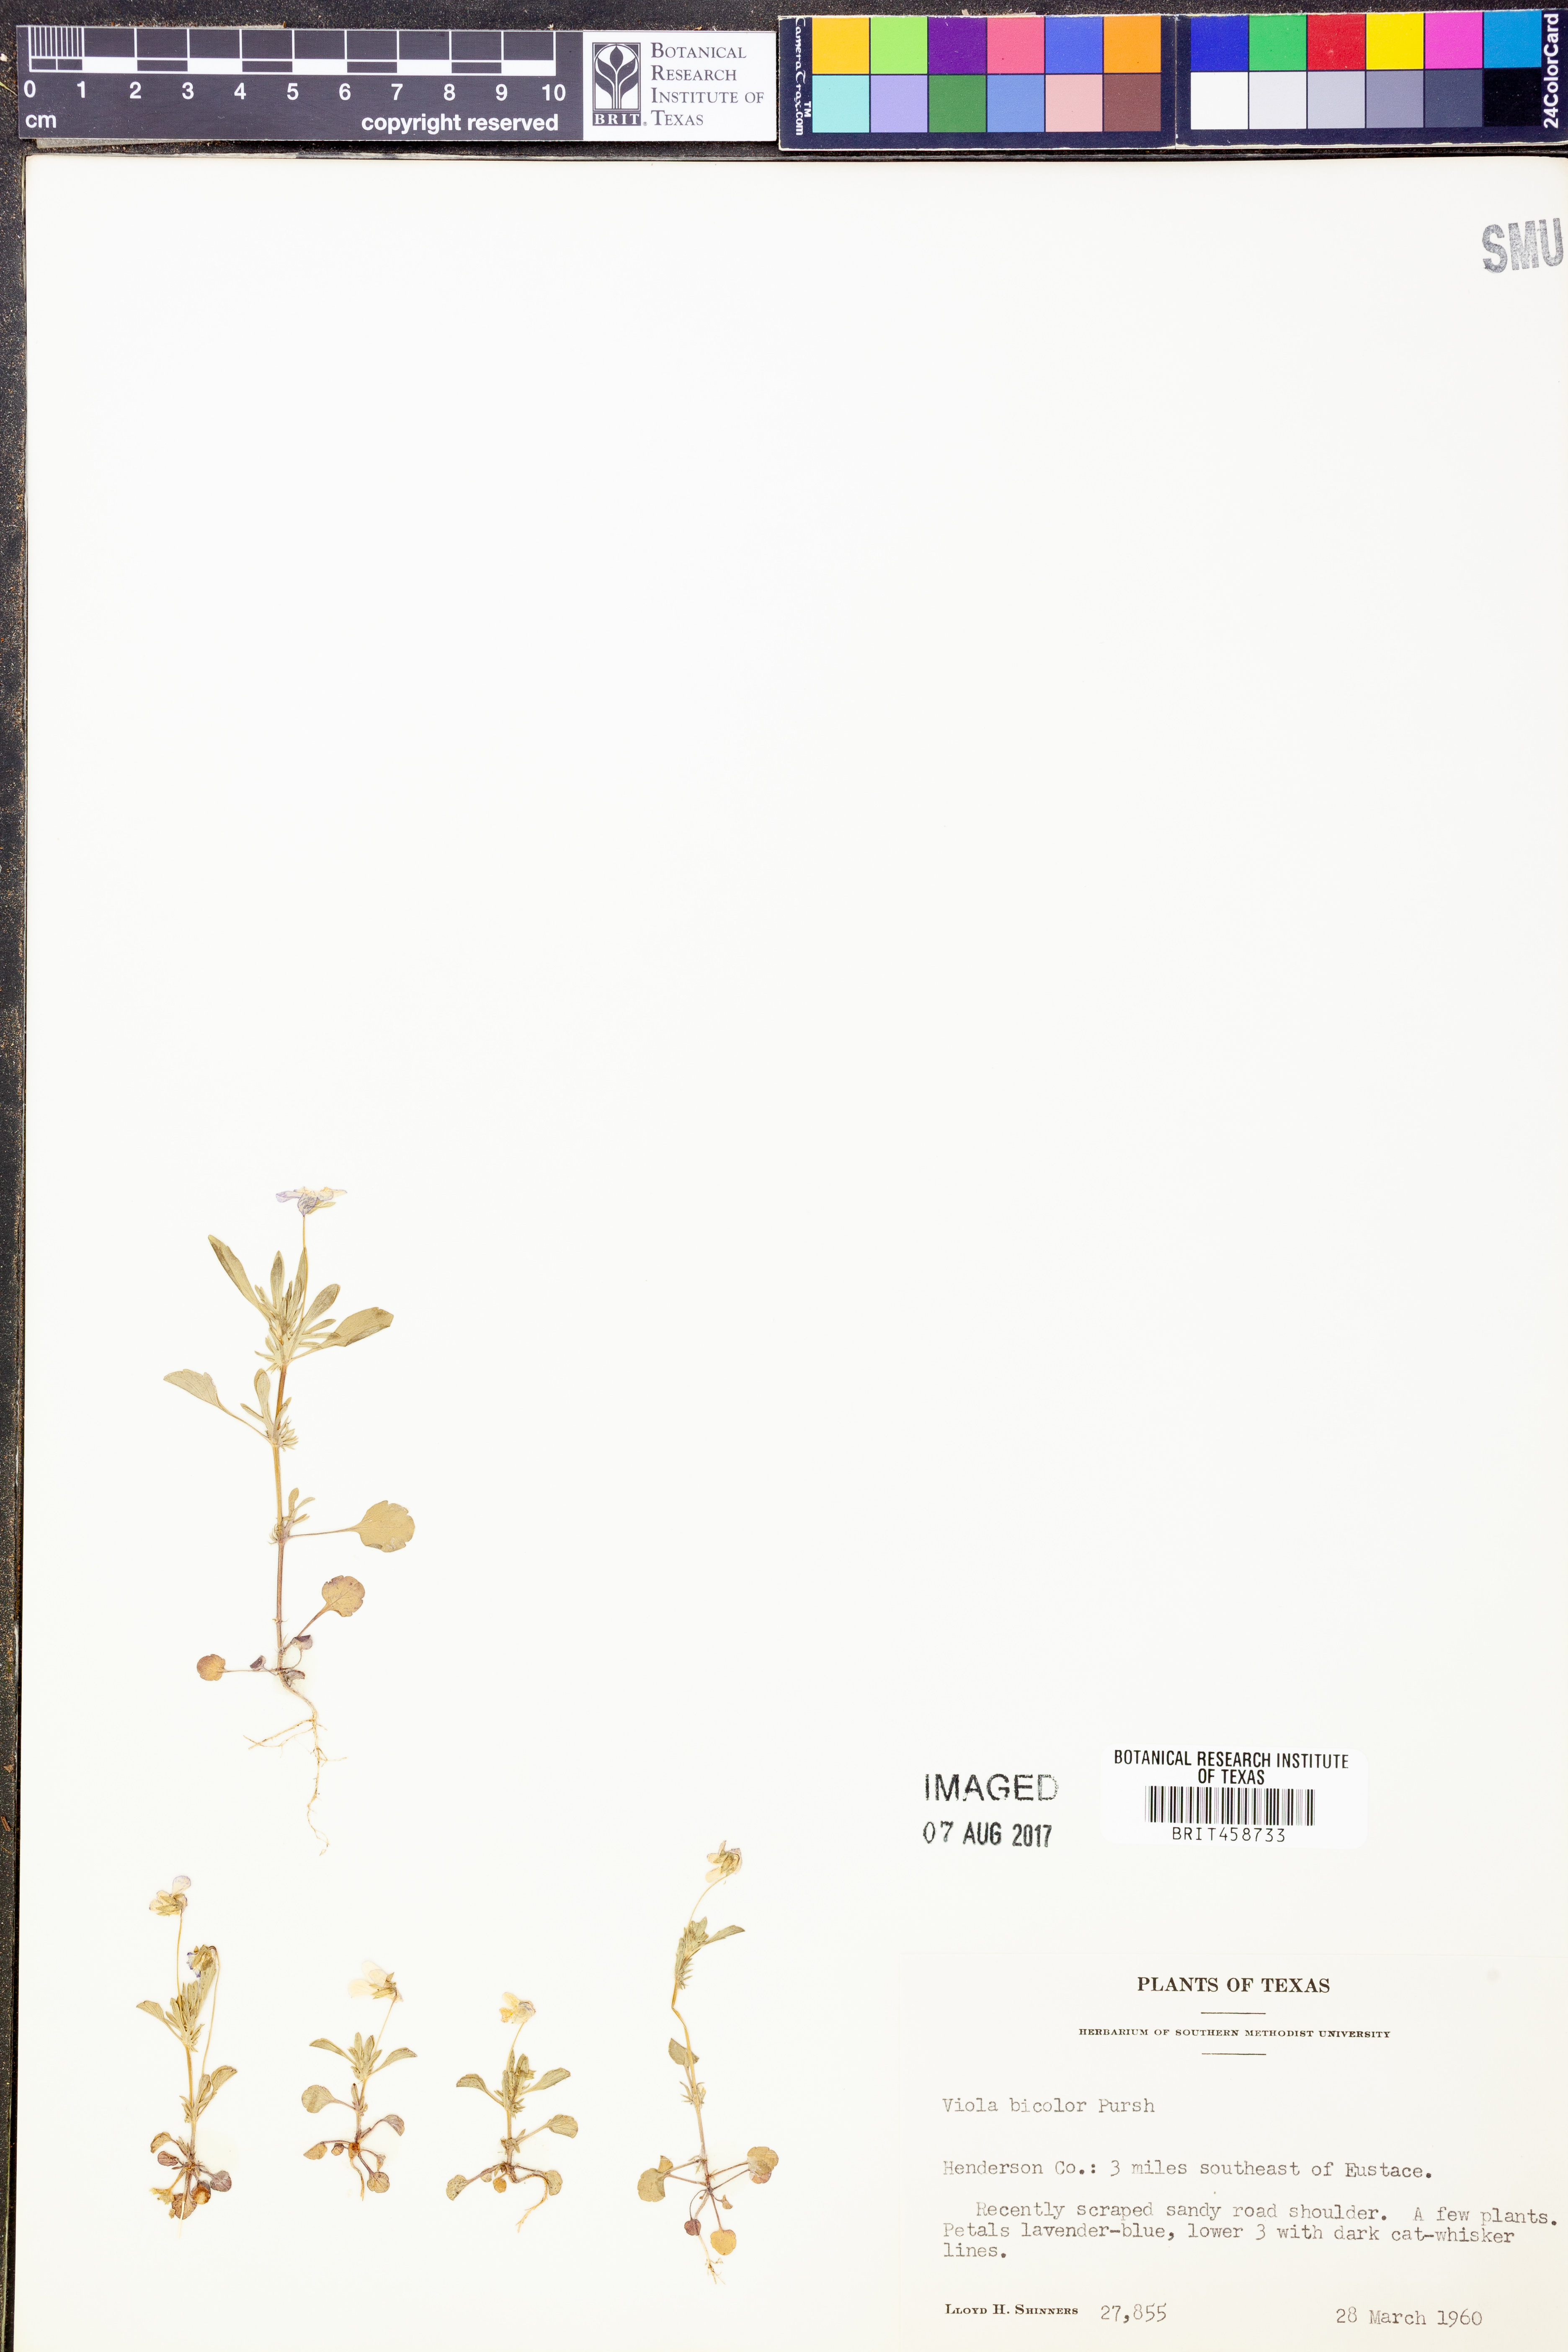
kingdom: Plantae
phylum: Tracheophyta
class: Magnoliopsida
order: Malpighiales
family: Violaceae
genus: Viola
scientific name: Viola rafinesquei
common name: American field pansy
